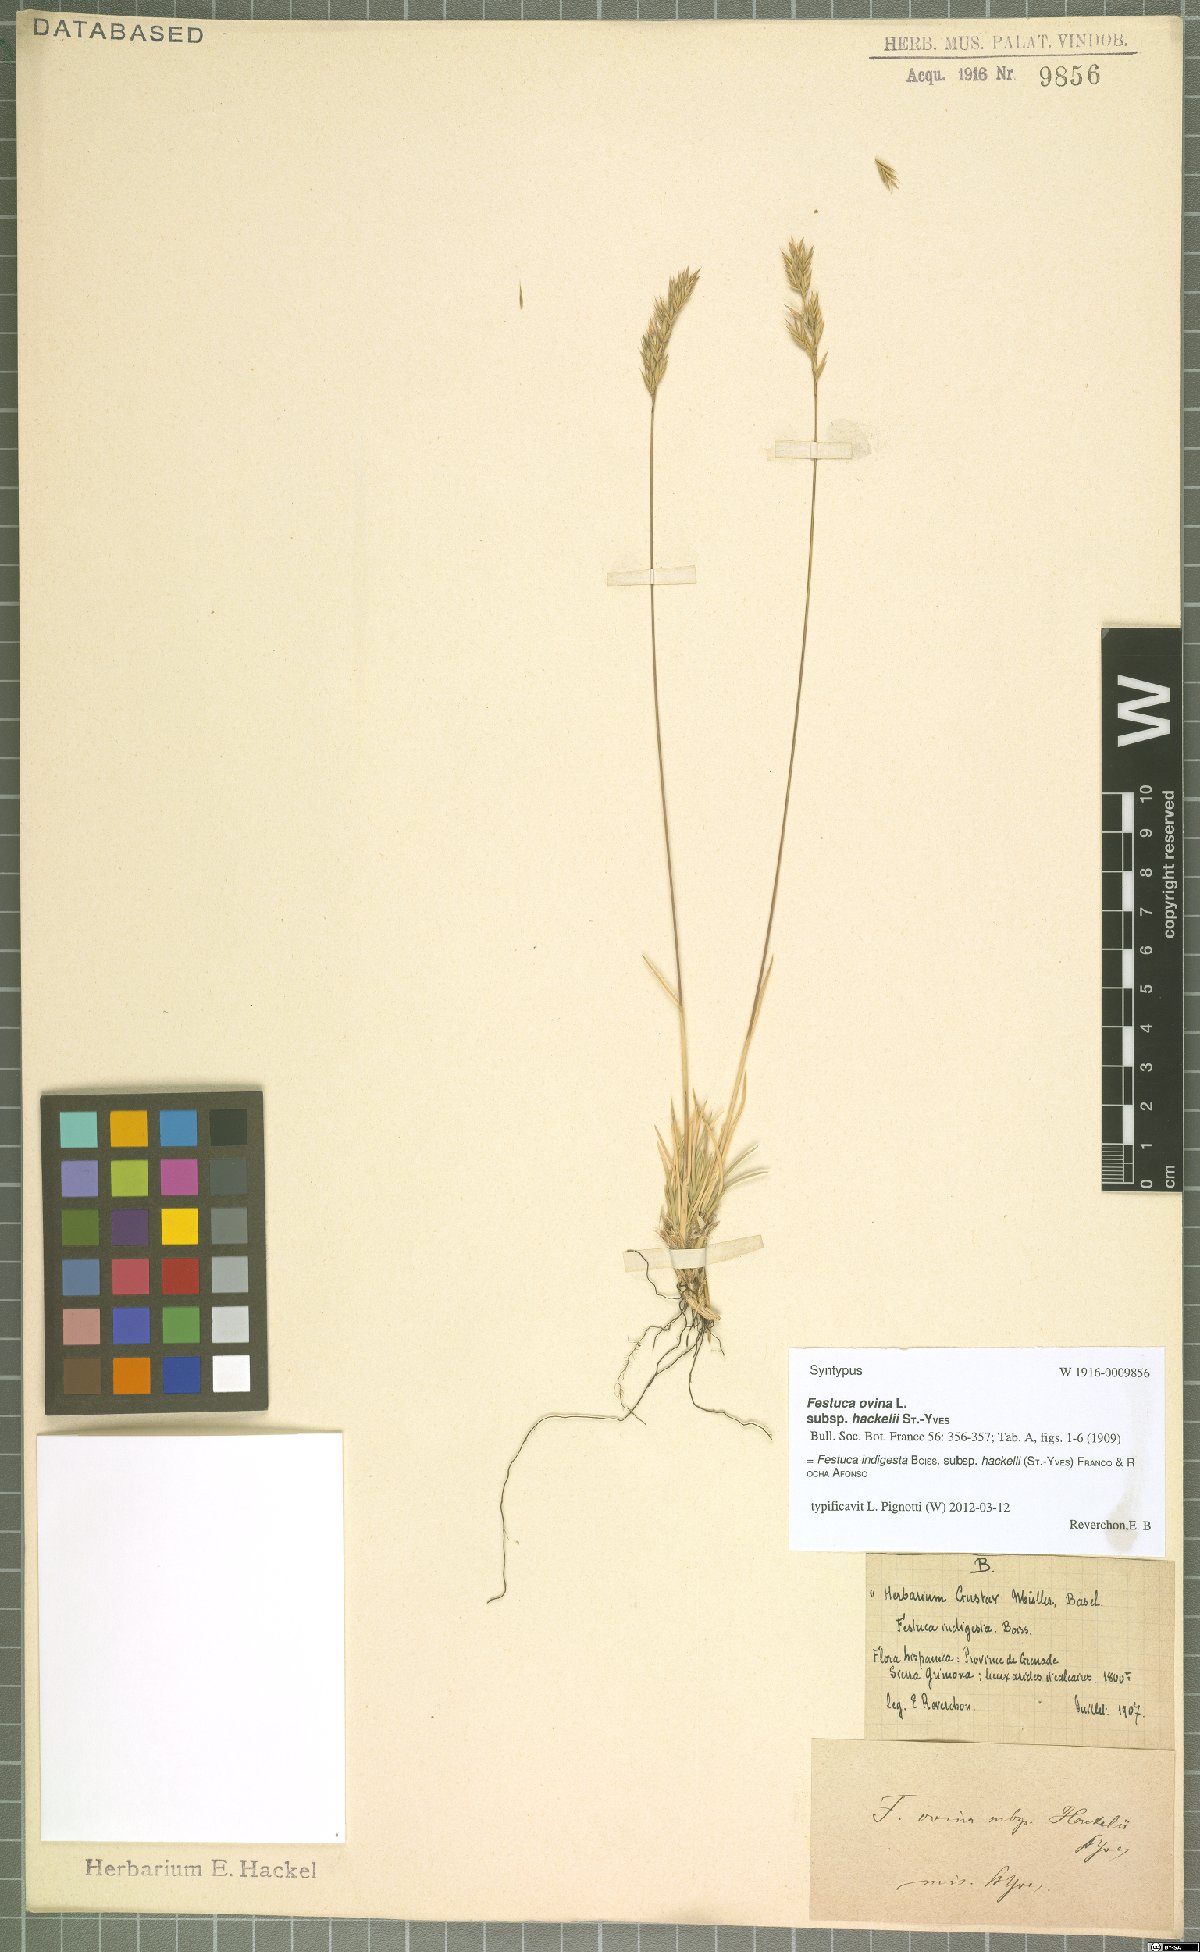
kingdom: Plantae
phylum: Tracheophyta
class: Liliopsida
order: Poales
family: Poaceae
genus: Festuca
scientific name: Festuca indigesta
